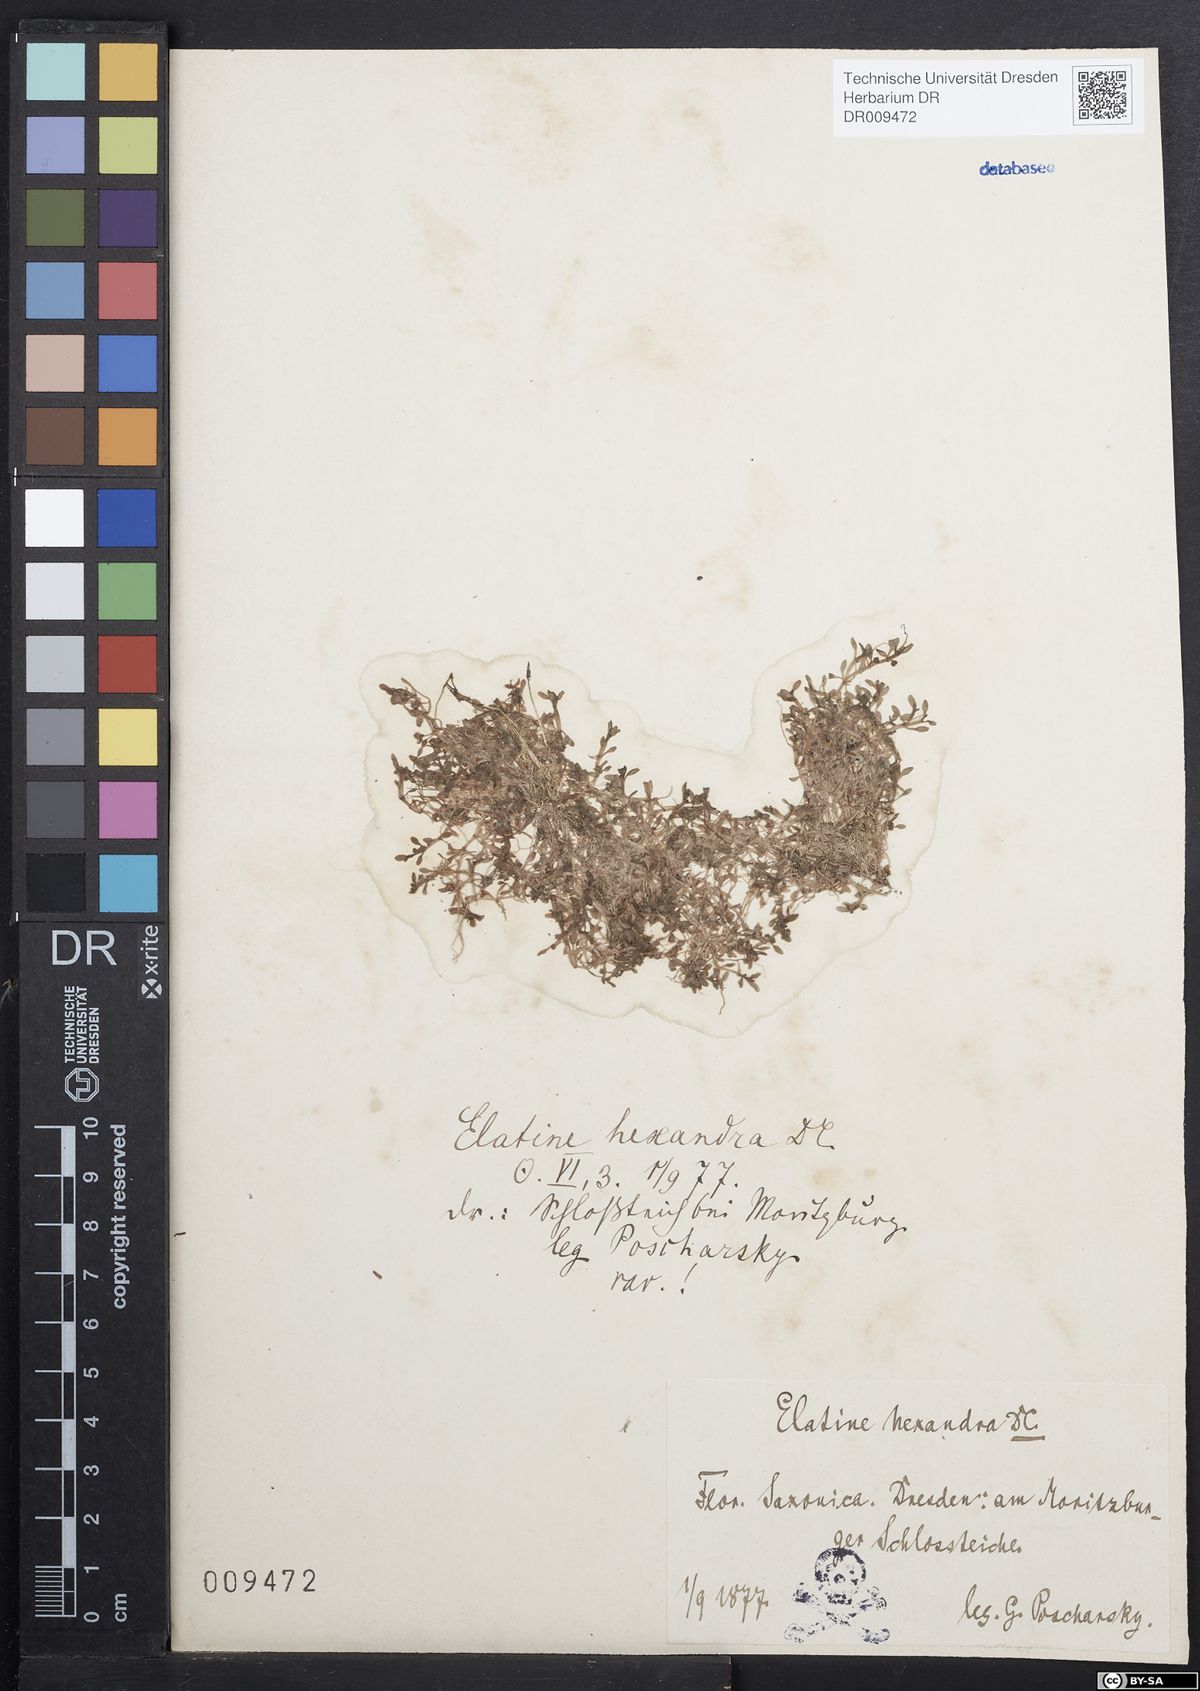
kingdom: Plantae
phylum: Tracheophyta
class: Magnoliopsida
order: Malpighiales
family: Elatinaceae
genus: Elatine
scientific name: Elatine hexandra
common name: Six-stamened waterwort
